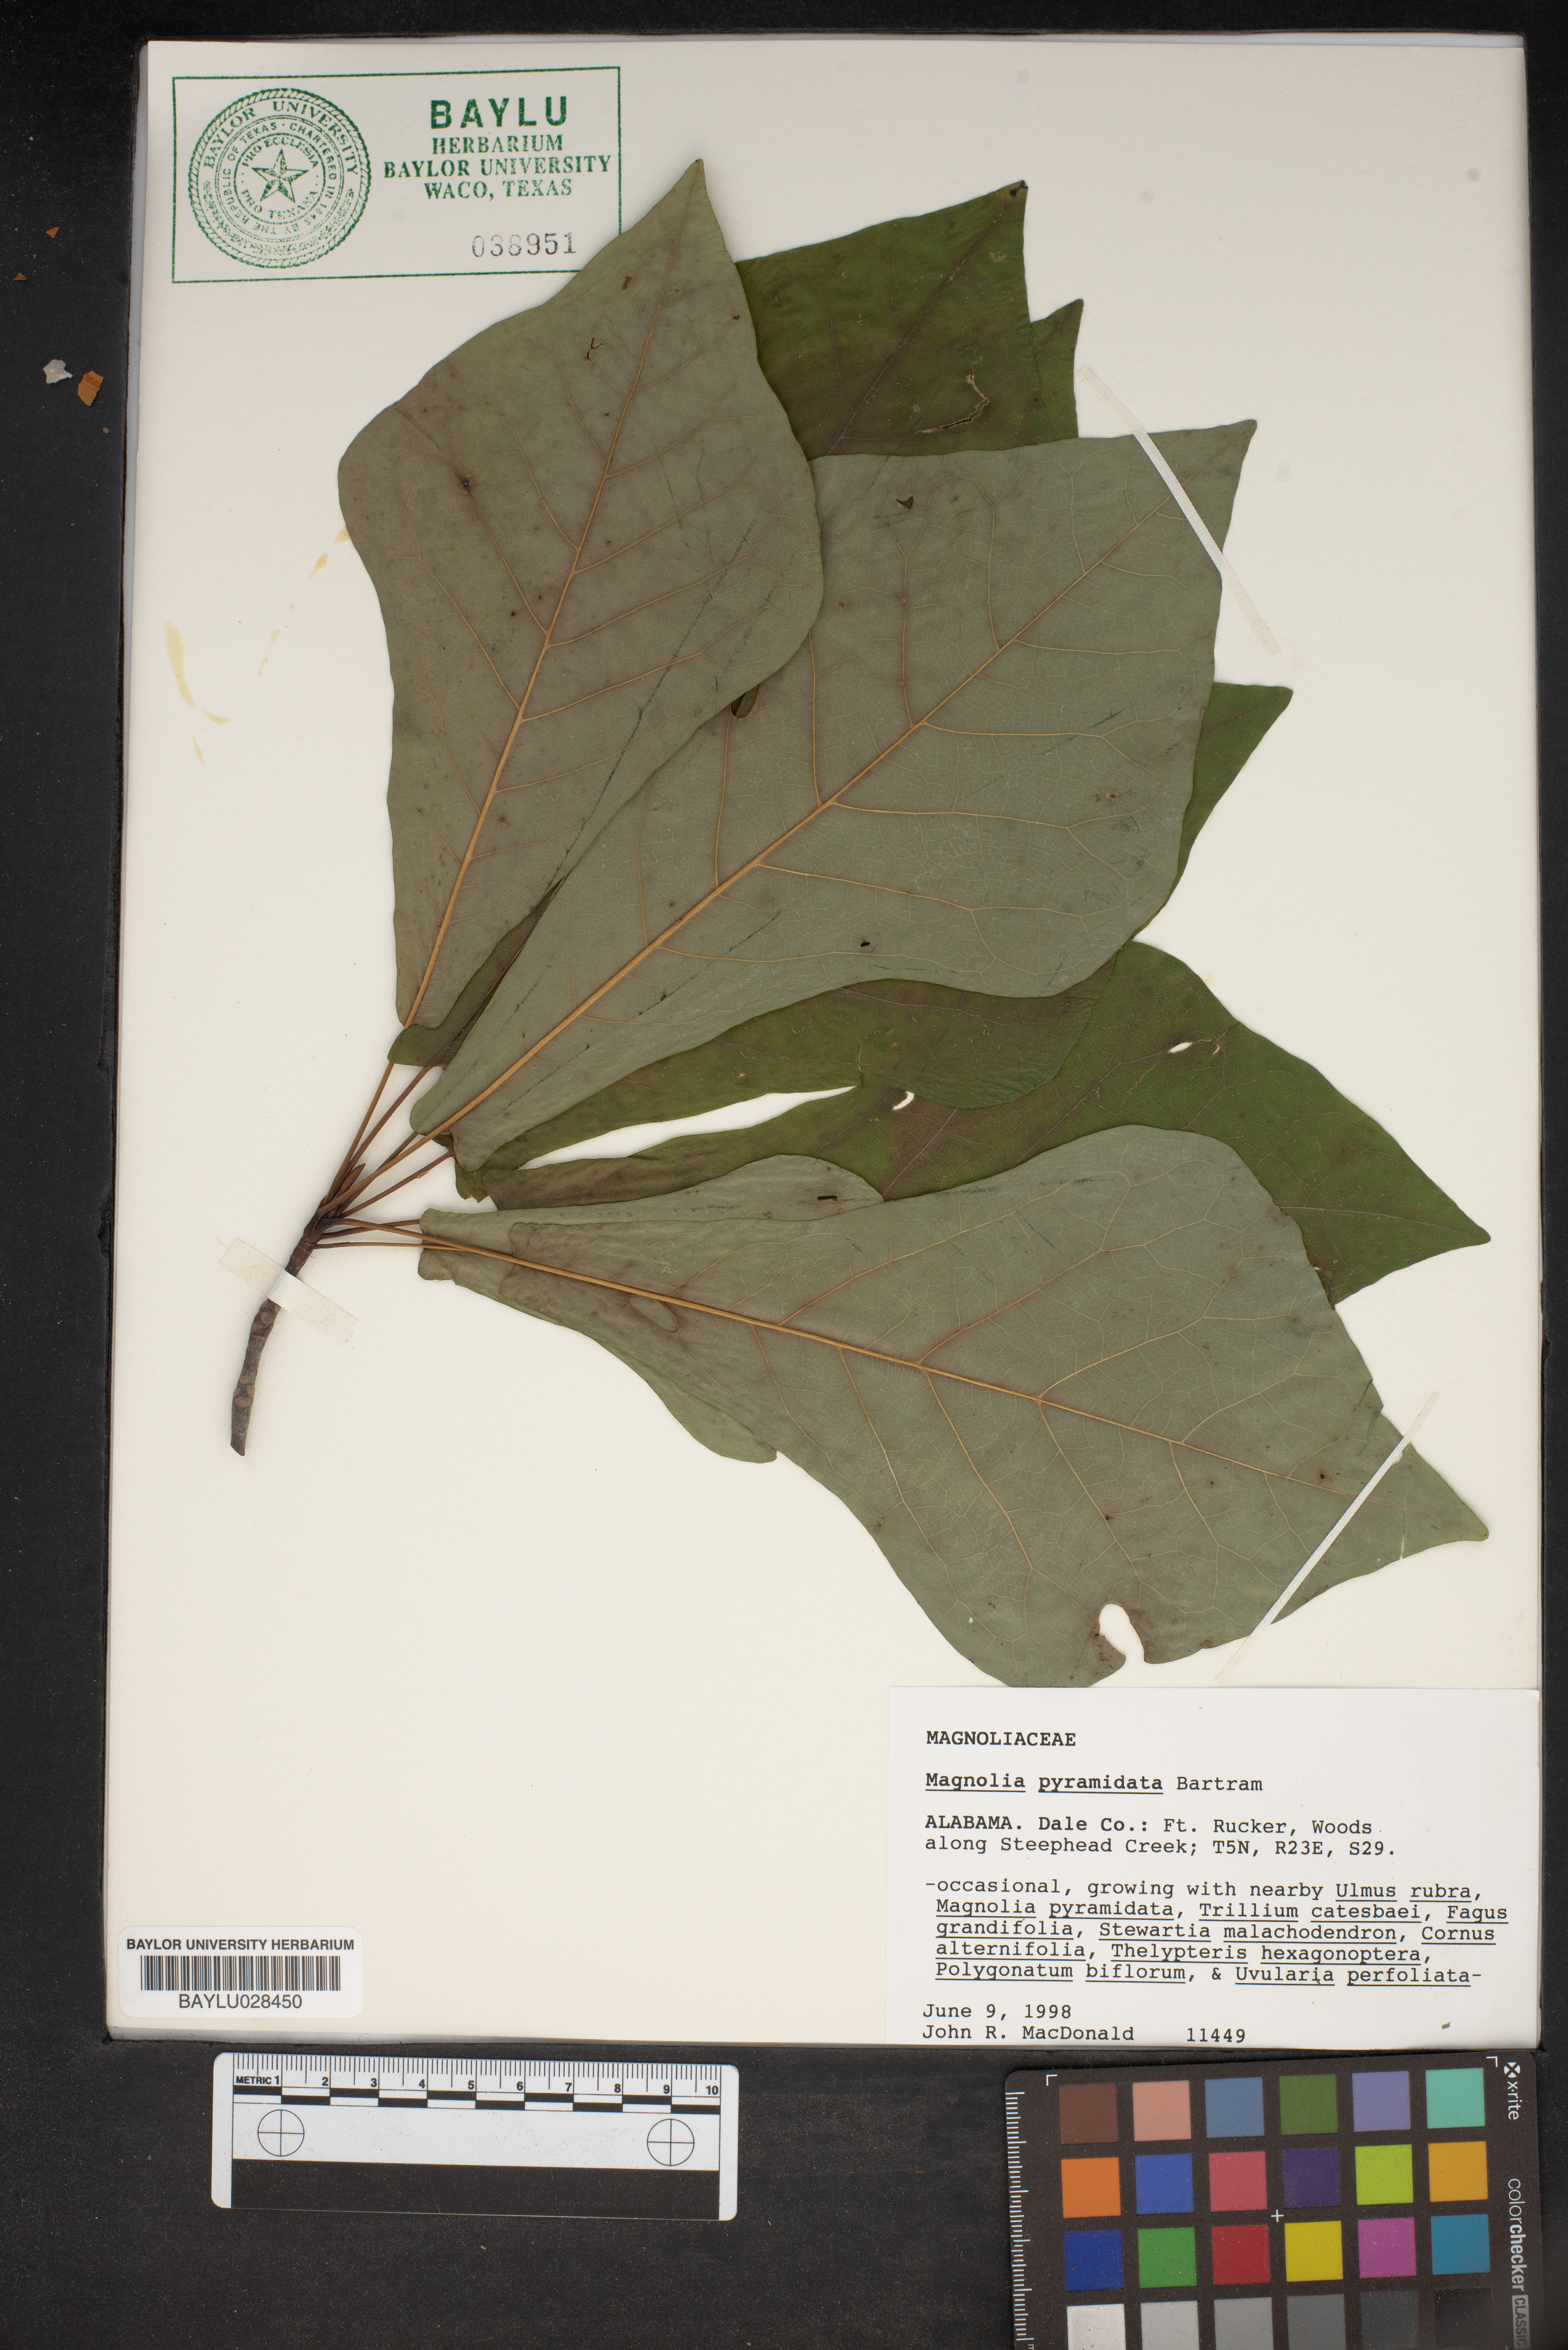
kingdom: Plantae
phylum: Tracheophyta
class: Magnoliopsida
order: Magnoliales
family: Magnoliaceae
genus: Magnolia
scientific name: Magnolia fraseri
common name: Fraser's magnolia
